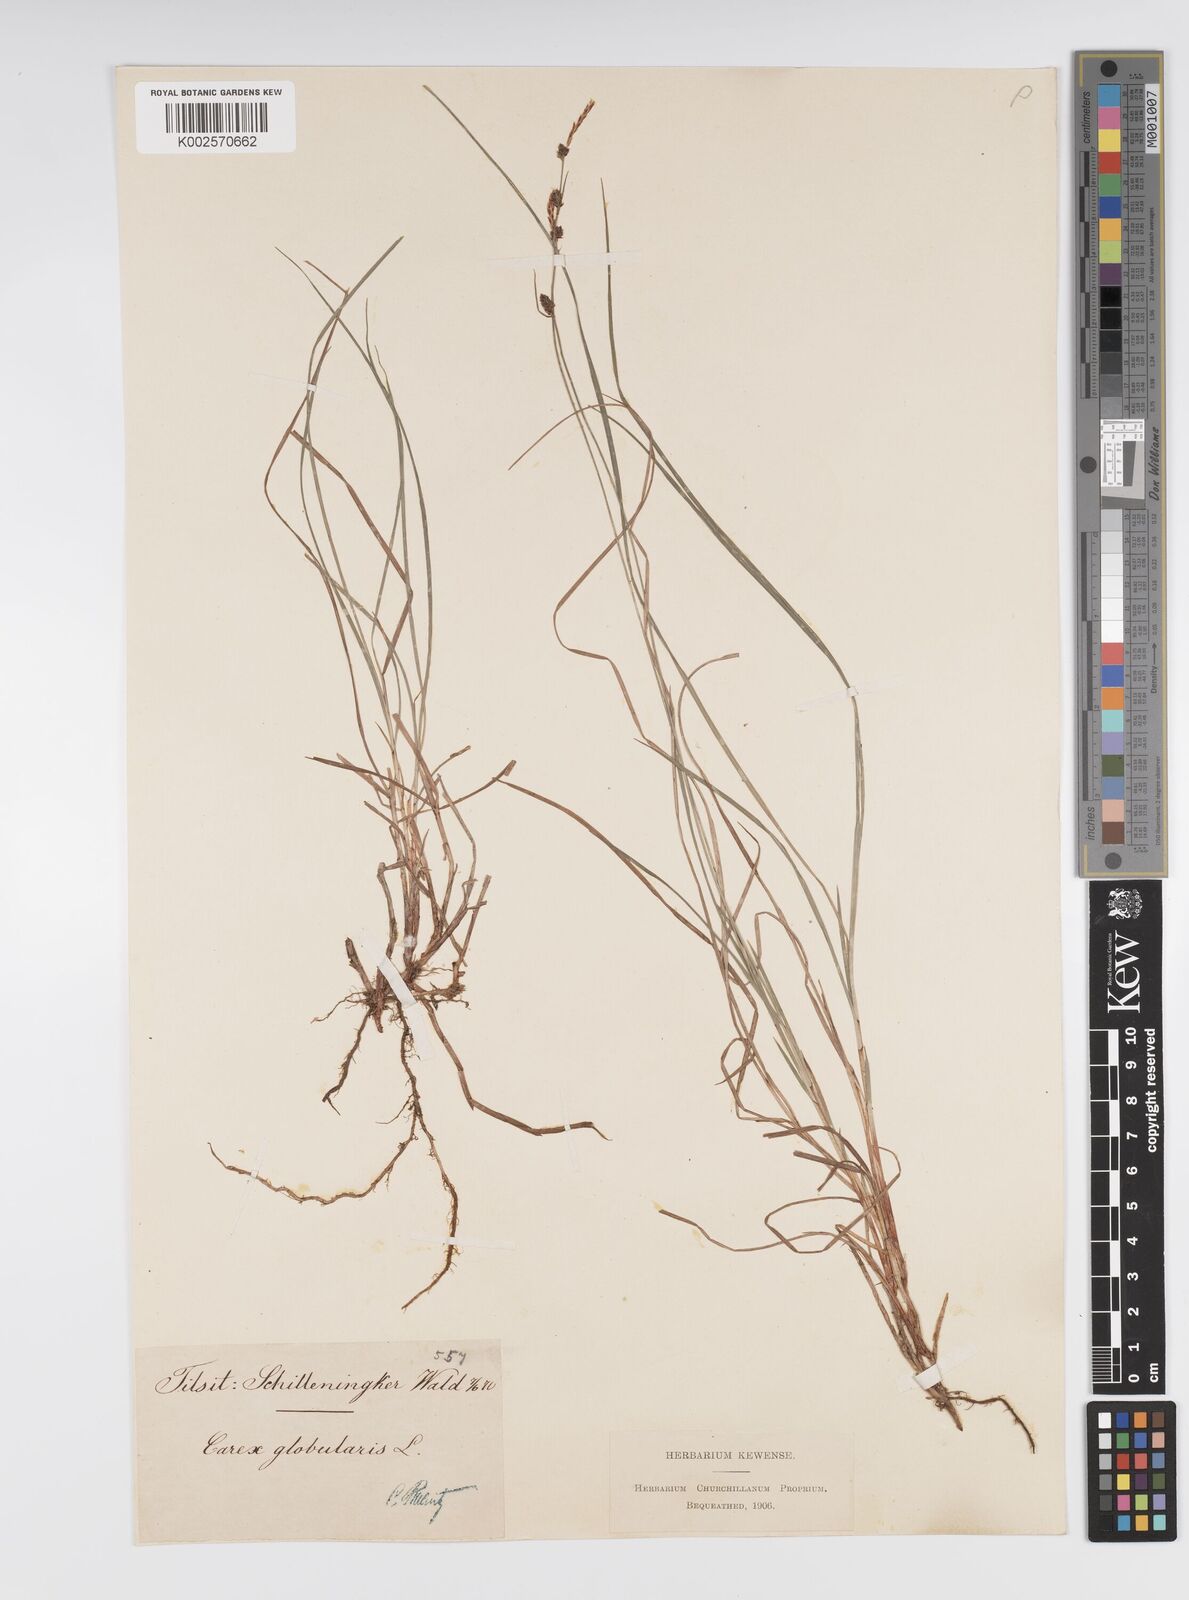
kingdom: Plantae
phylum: Tracheophyta
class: Liliopsida
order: Poales
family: Cyperaceae
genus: Carex
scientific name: Carex globularis
